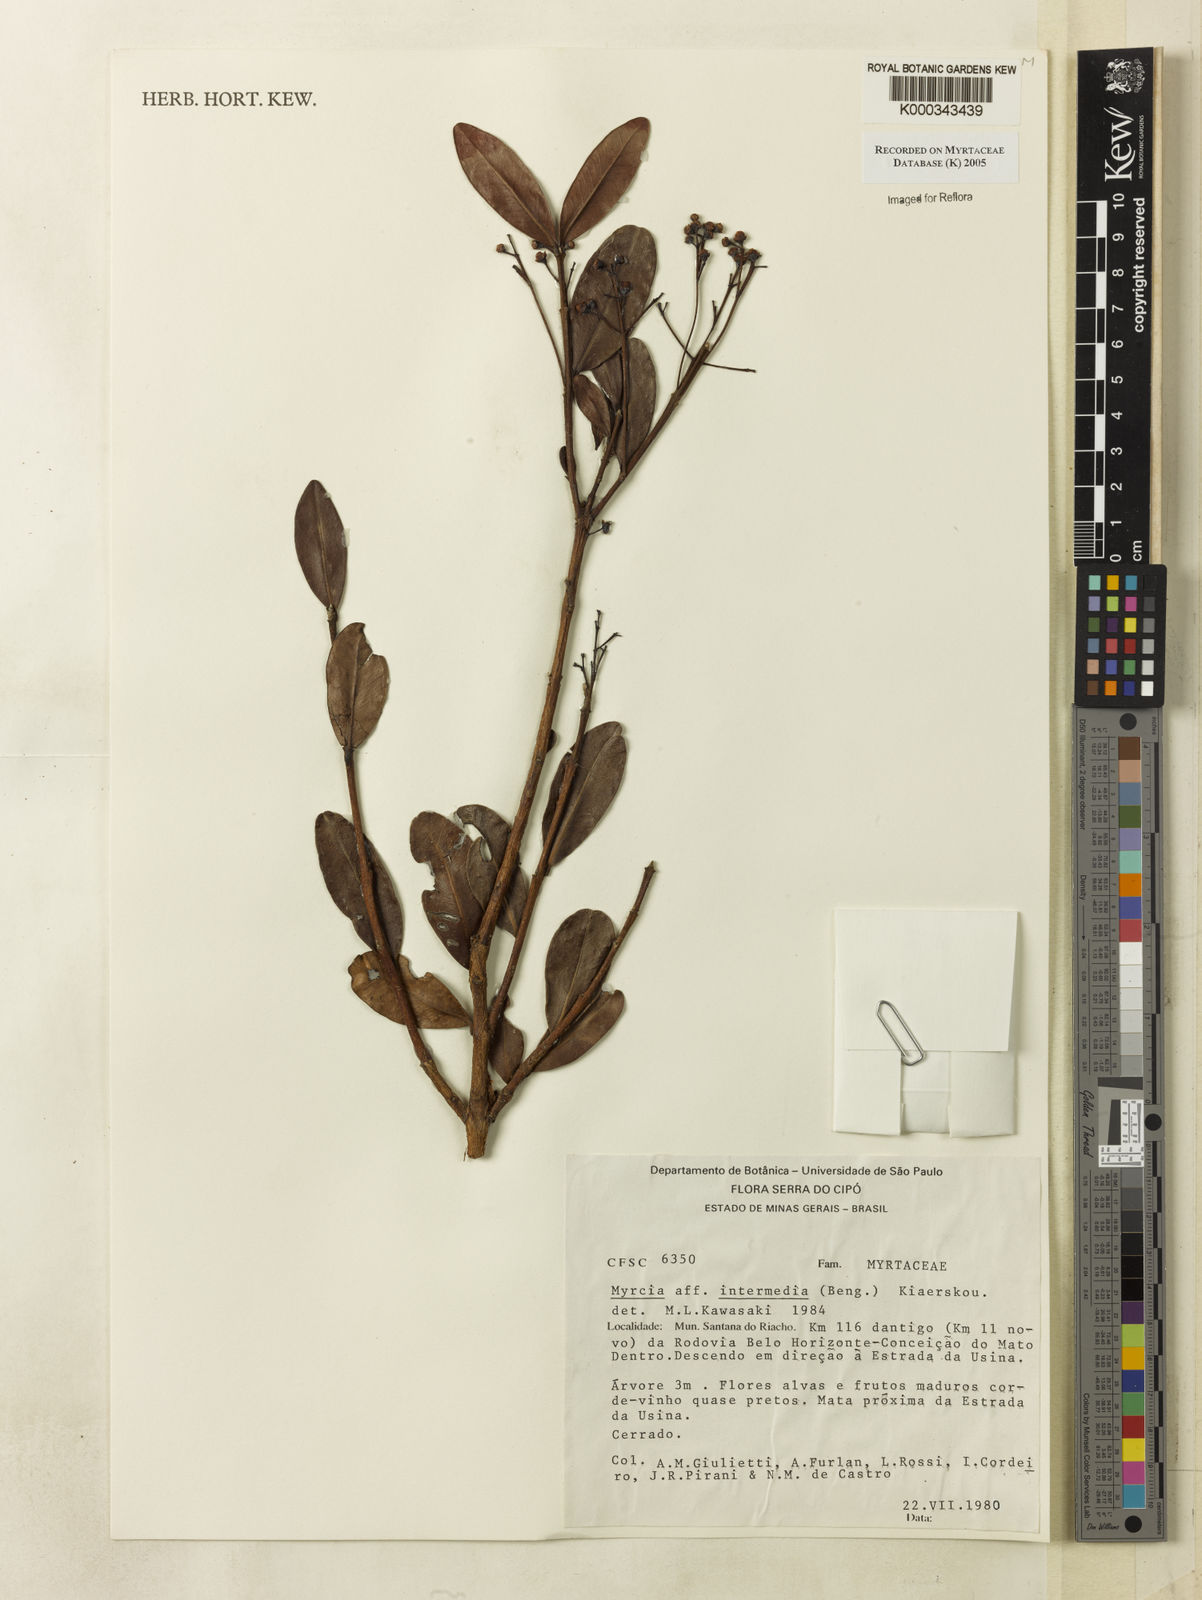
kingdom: Plantae
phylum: Tracheophyta
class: Magnoliopsida
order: Myrtales
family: Myrtaceae
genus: Myrcia
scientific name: Myrcia guianensis
